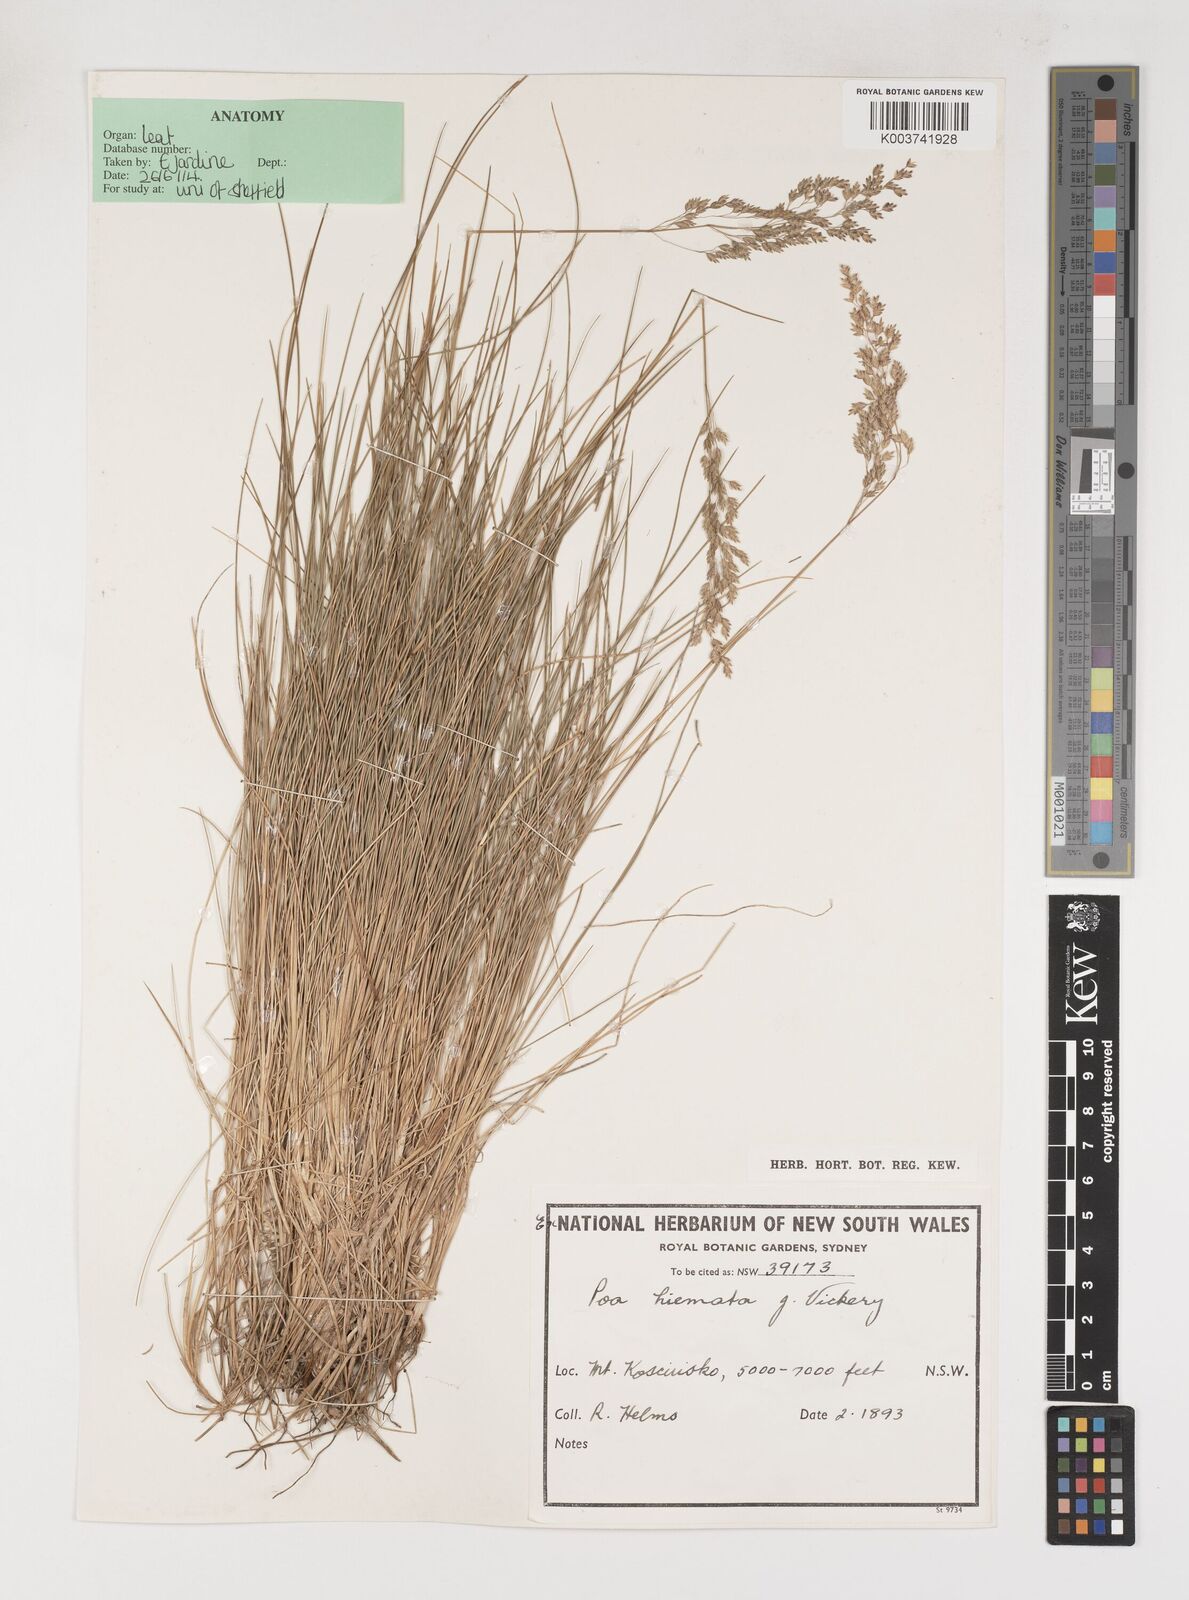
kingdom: Plantae
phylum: Tracheophyta
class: Liliopsida
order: Poales
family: Poaceae
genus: Poa
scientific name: Poa hiemata
